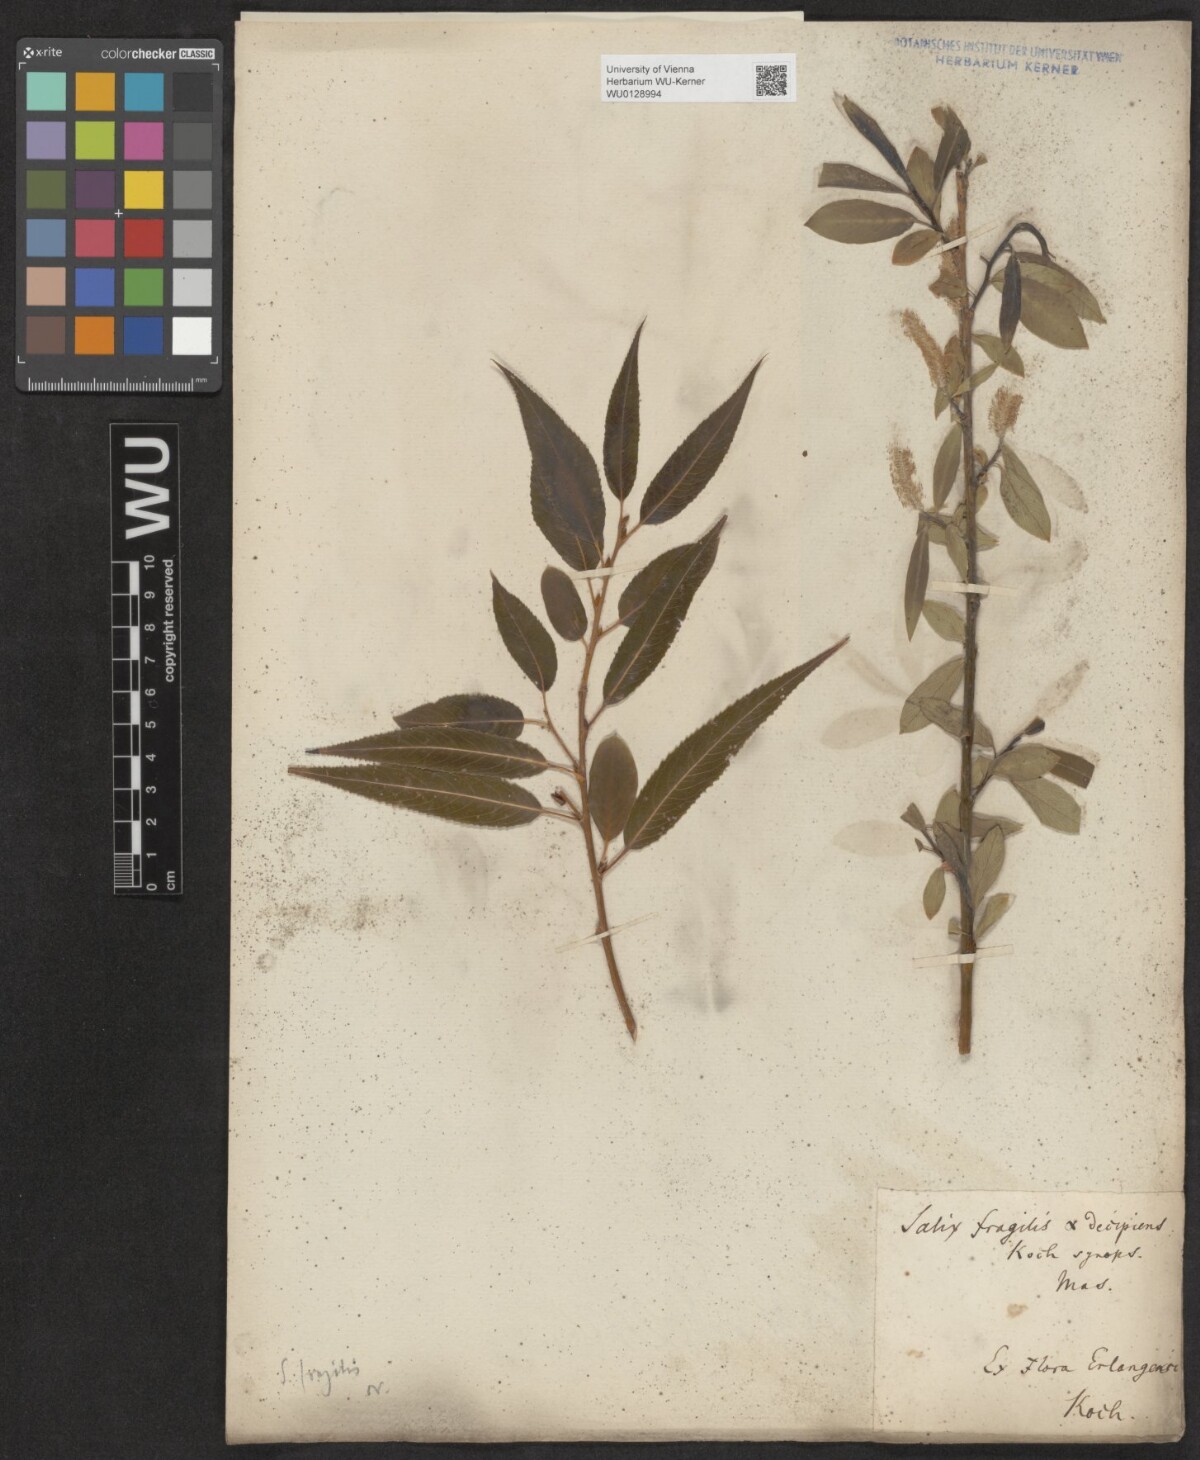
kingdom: Plantae
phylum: Tracheophyta
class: Magnoliopsida
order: Malpighiales
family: Salicaceae
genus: Salix
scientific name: Salix fragilis
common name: Crack willow
